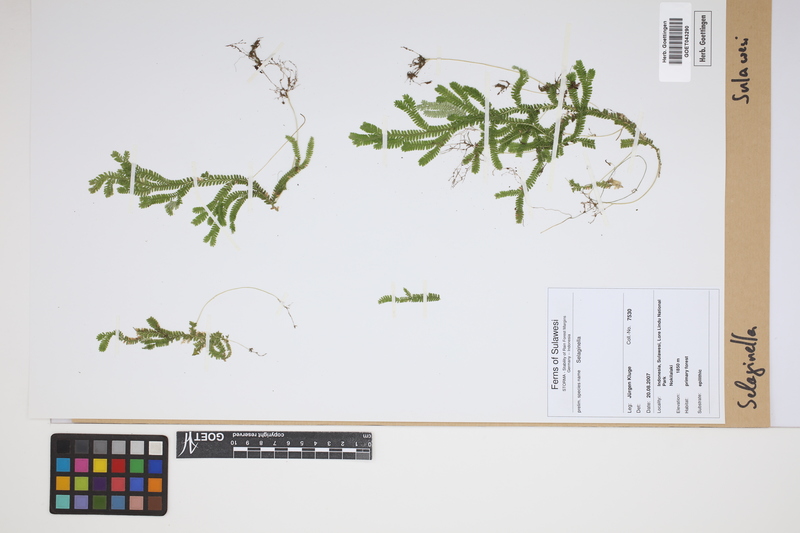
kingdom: Plantae
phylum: Tracheophyta
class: Lycopodiopsida
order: Selaginellales
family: Selaginellaceae
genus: Selaginella
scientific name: Selaginella
